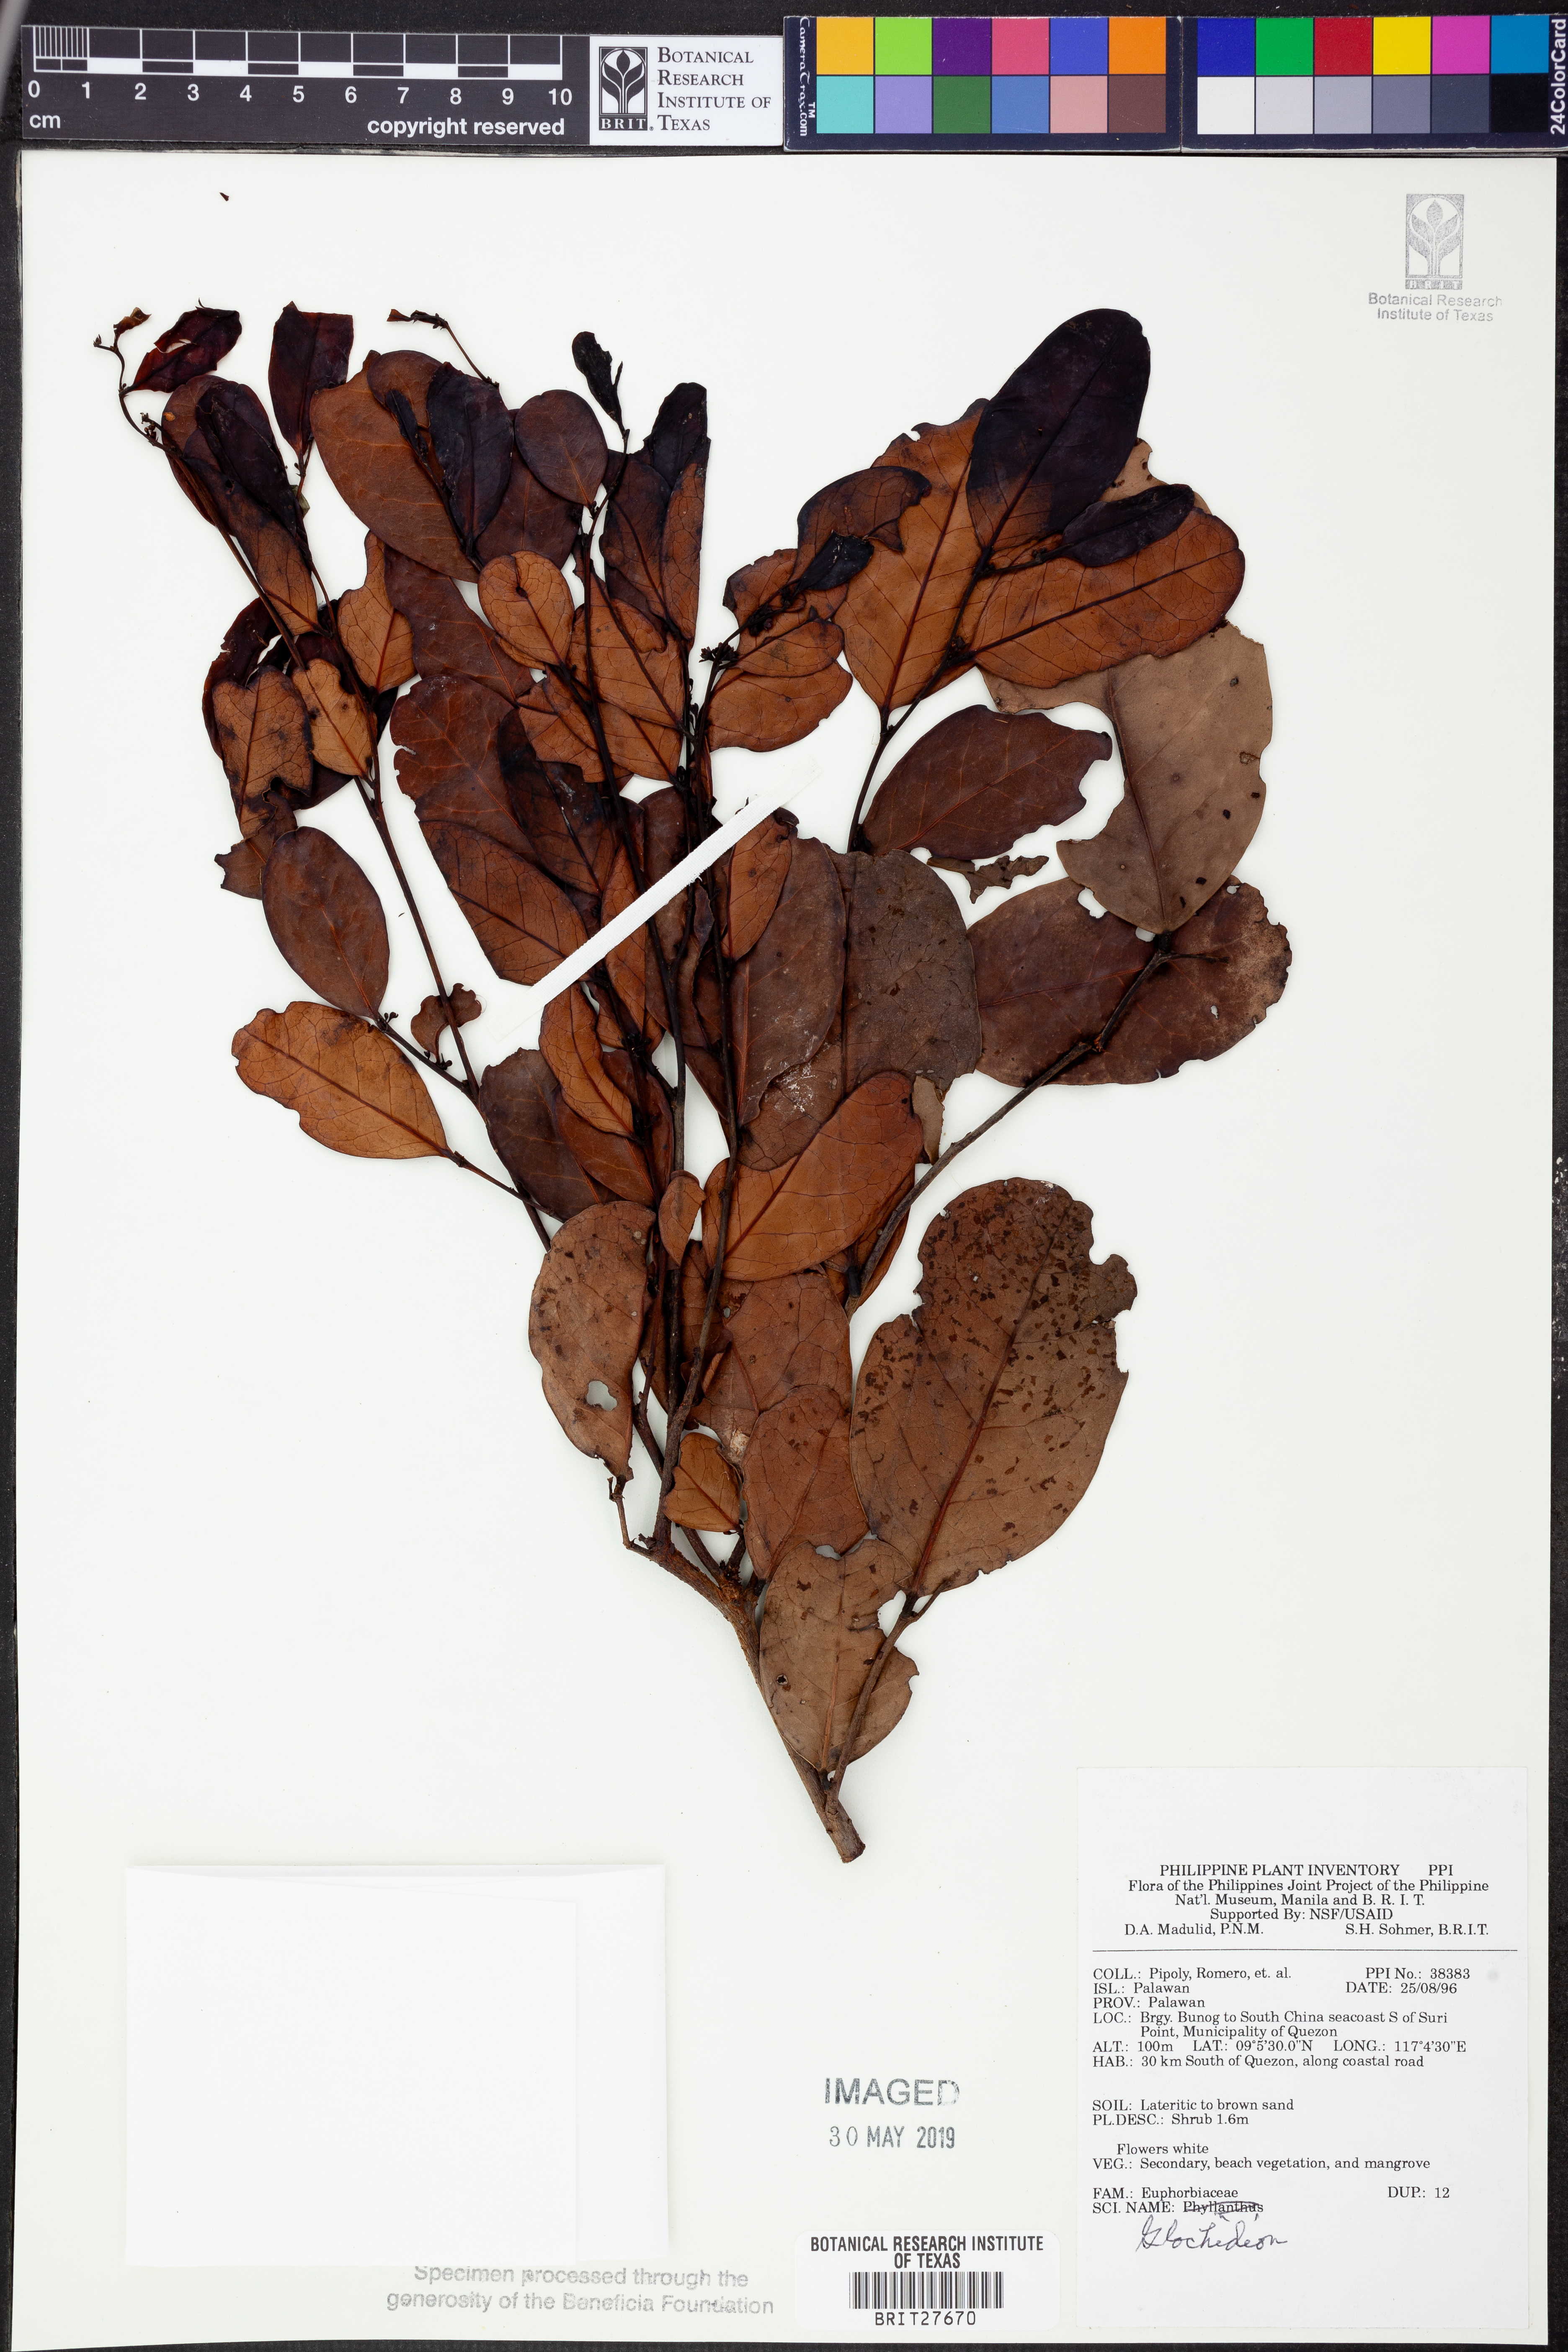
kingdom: Plantae
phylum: Tracheophyta
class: Magnoliopsida
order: Malpighiales
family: Phyllanthaceae
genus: Glochidion
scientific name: Glochidion
